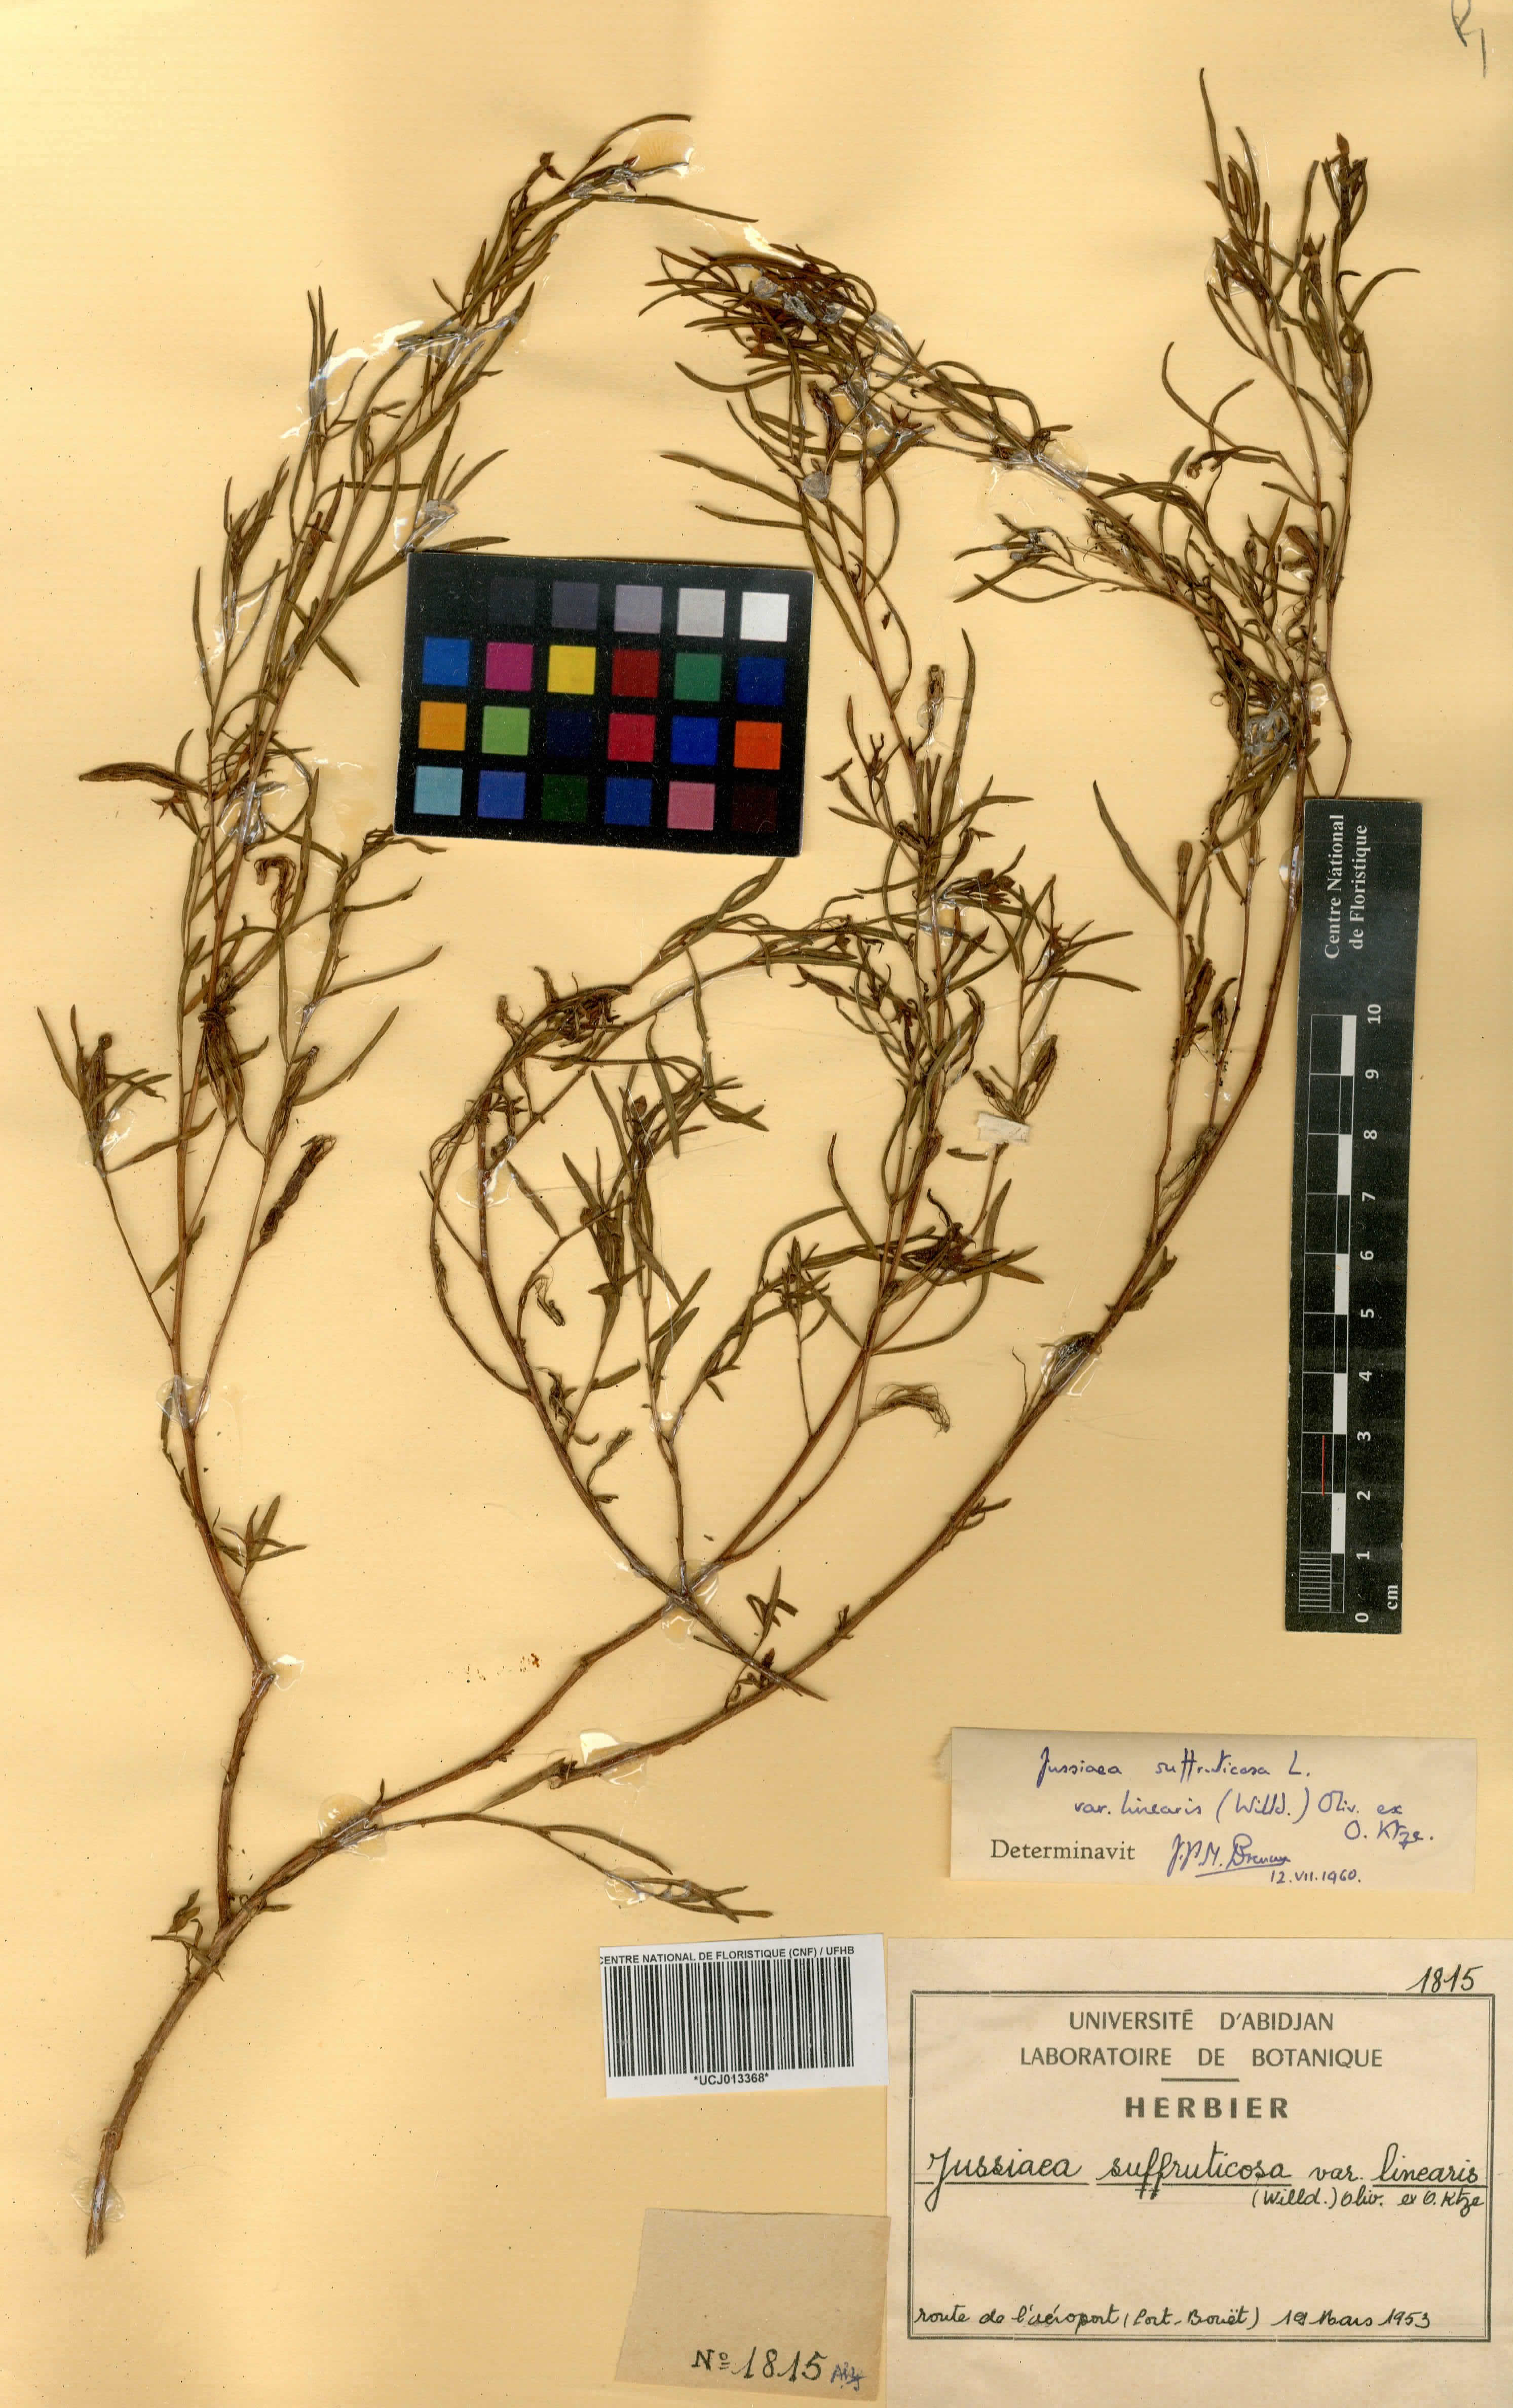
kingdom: Plantae
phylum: Tracheophyta
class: Magnoliopsida
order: Myrtales
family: Onagraceae
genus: Ludwigia
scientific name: Ludwigia octovalvis
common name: Water-primrose
